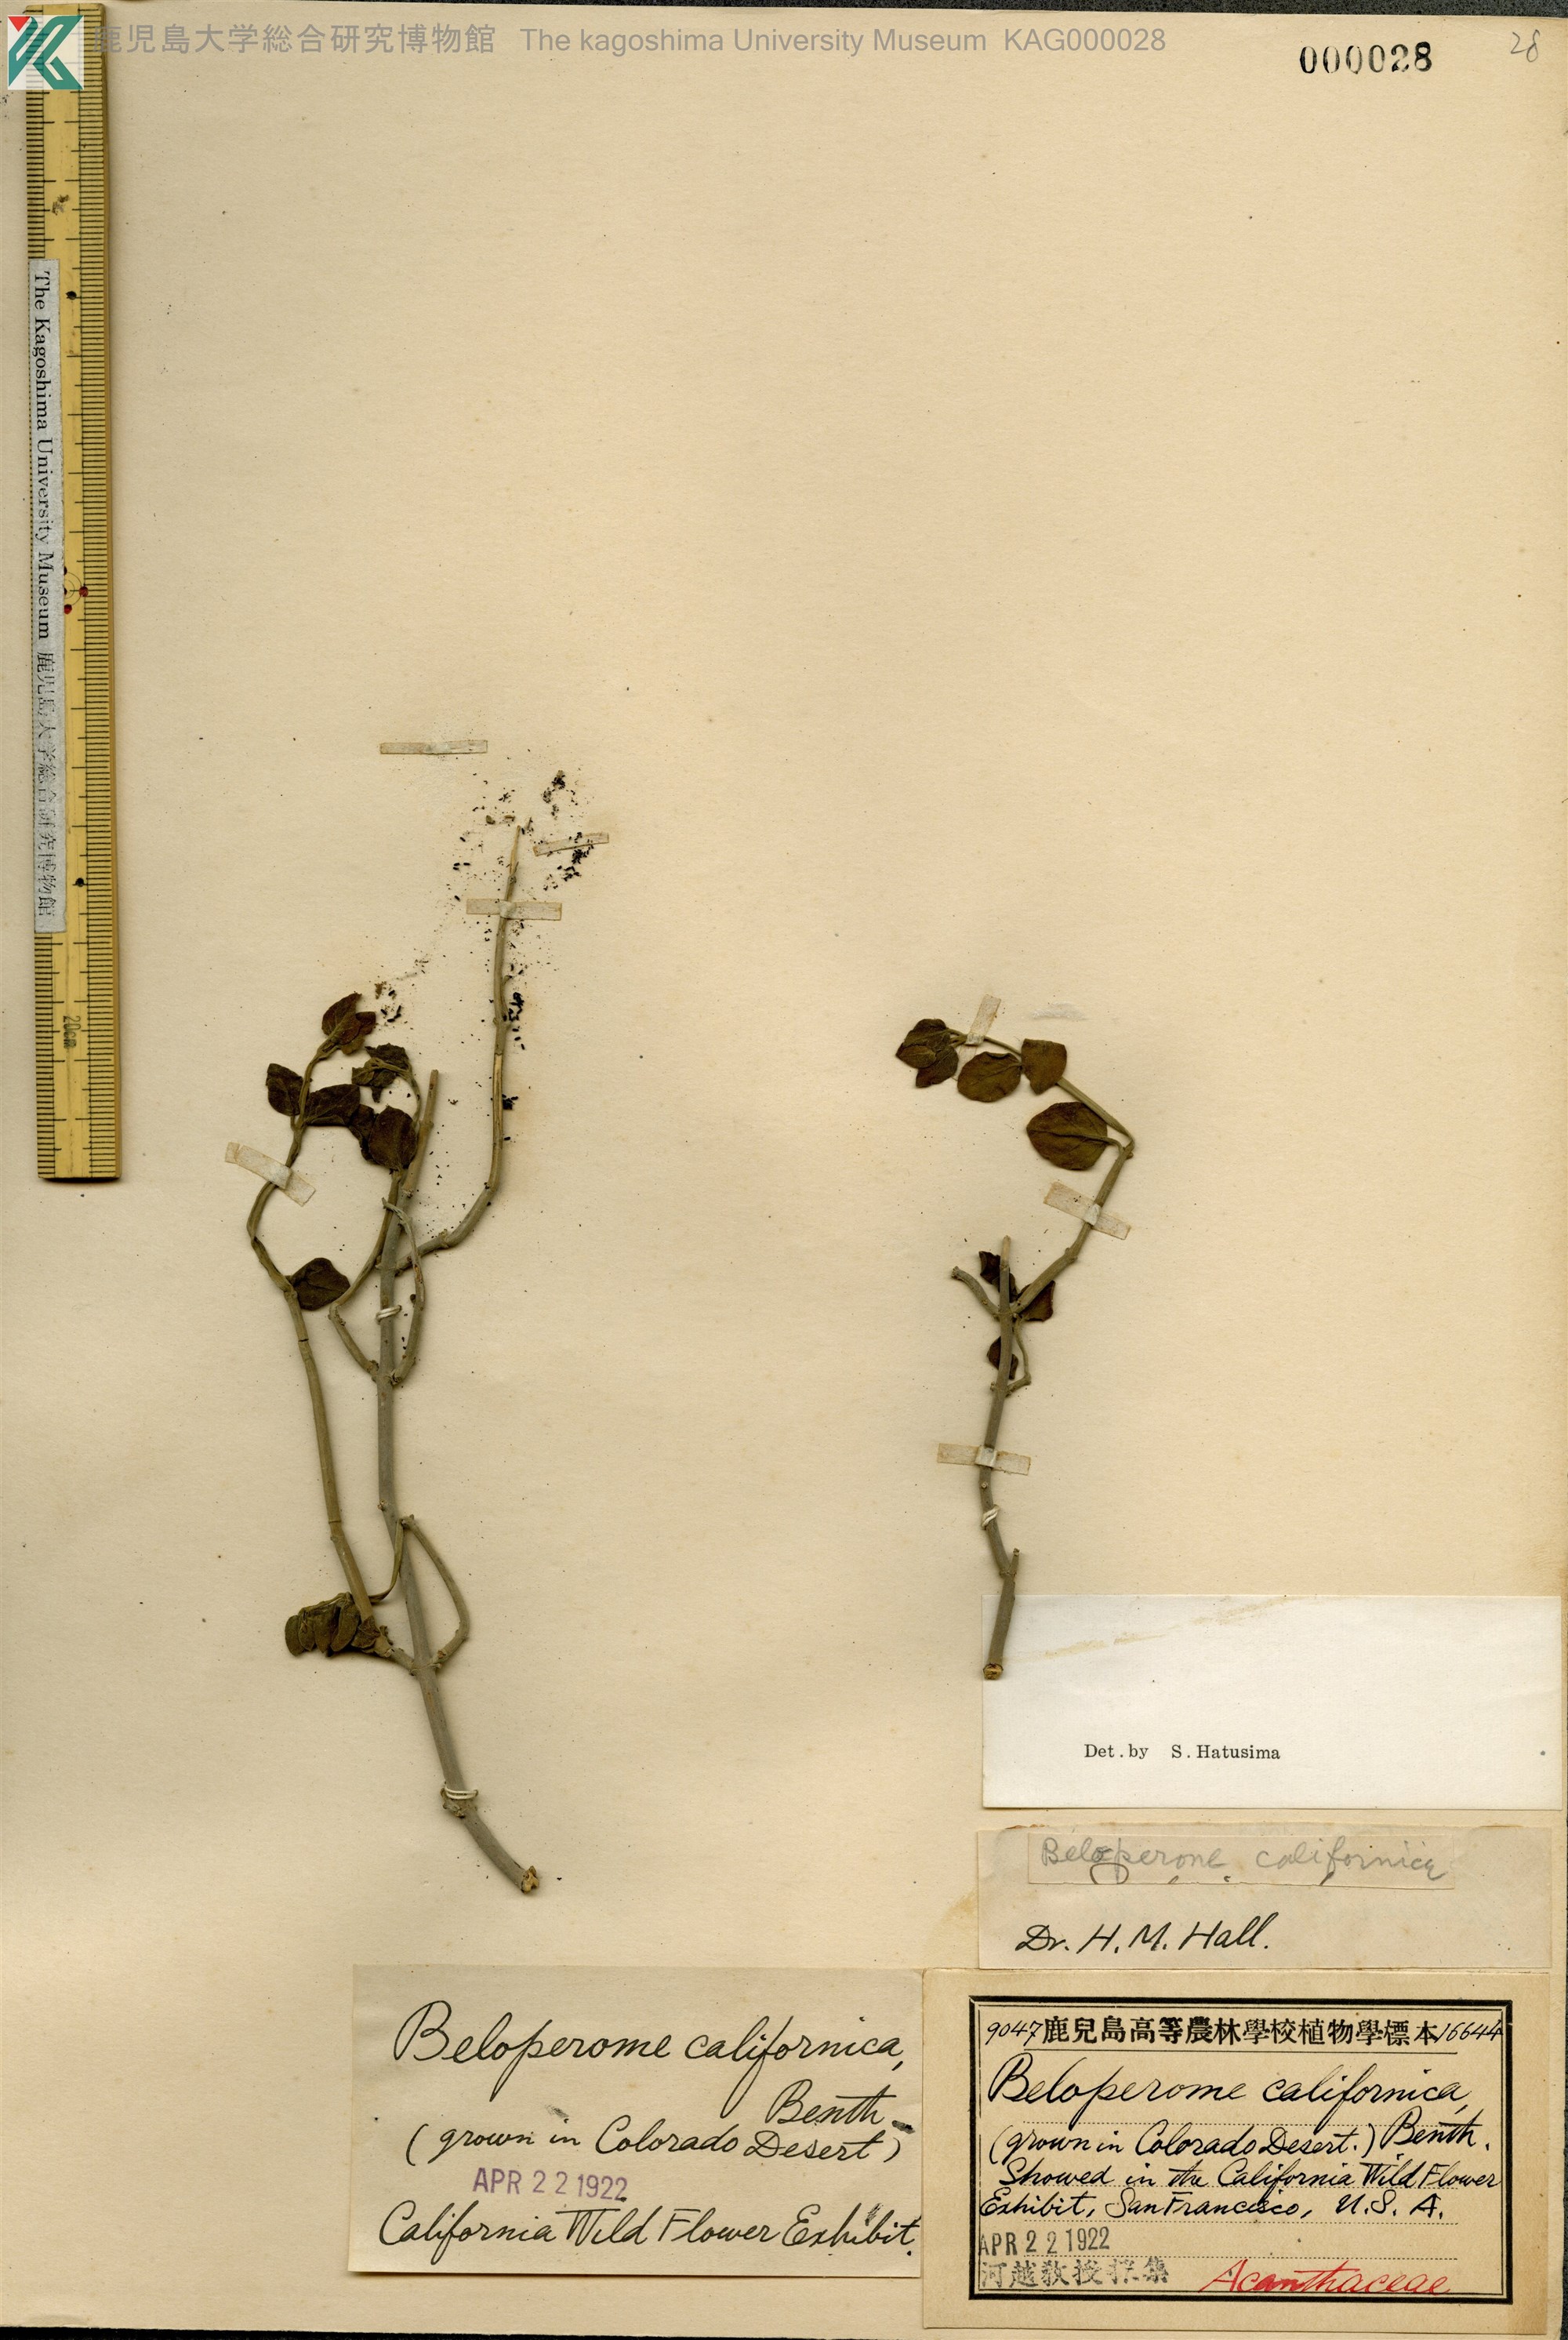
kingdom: Plantae
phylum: Tracheophyta
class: Magnoliopsida
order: Lamiales
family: Acanthaceae
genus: Justicia
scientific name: Justicia californica
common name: Chuparosa-honeysuckle
